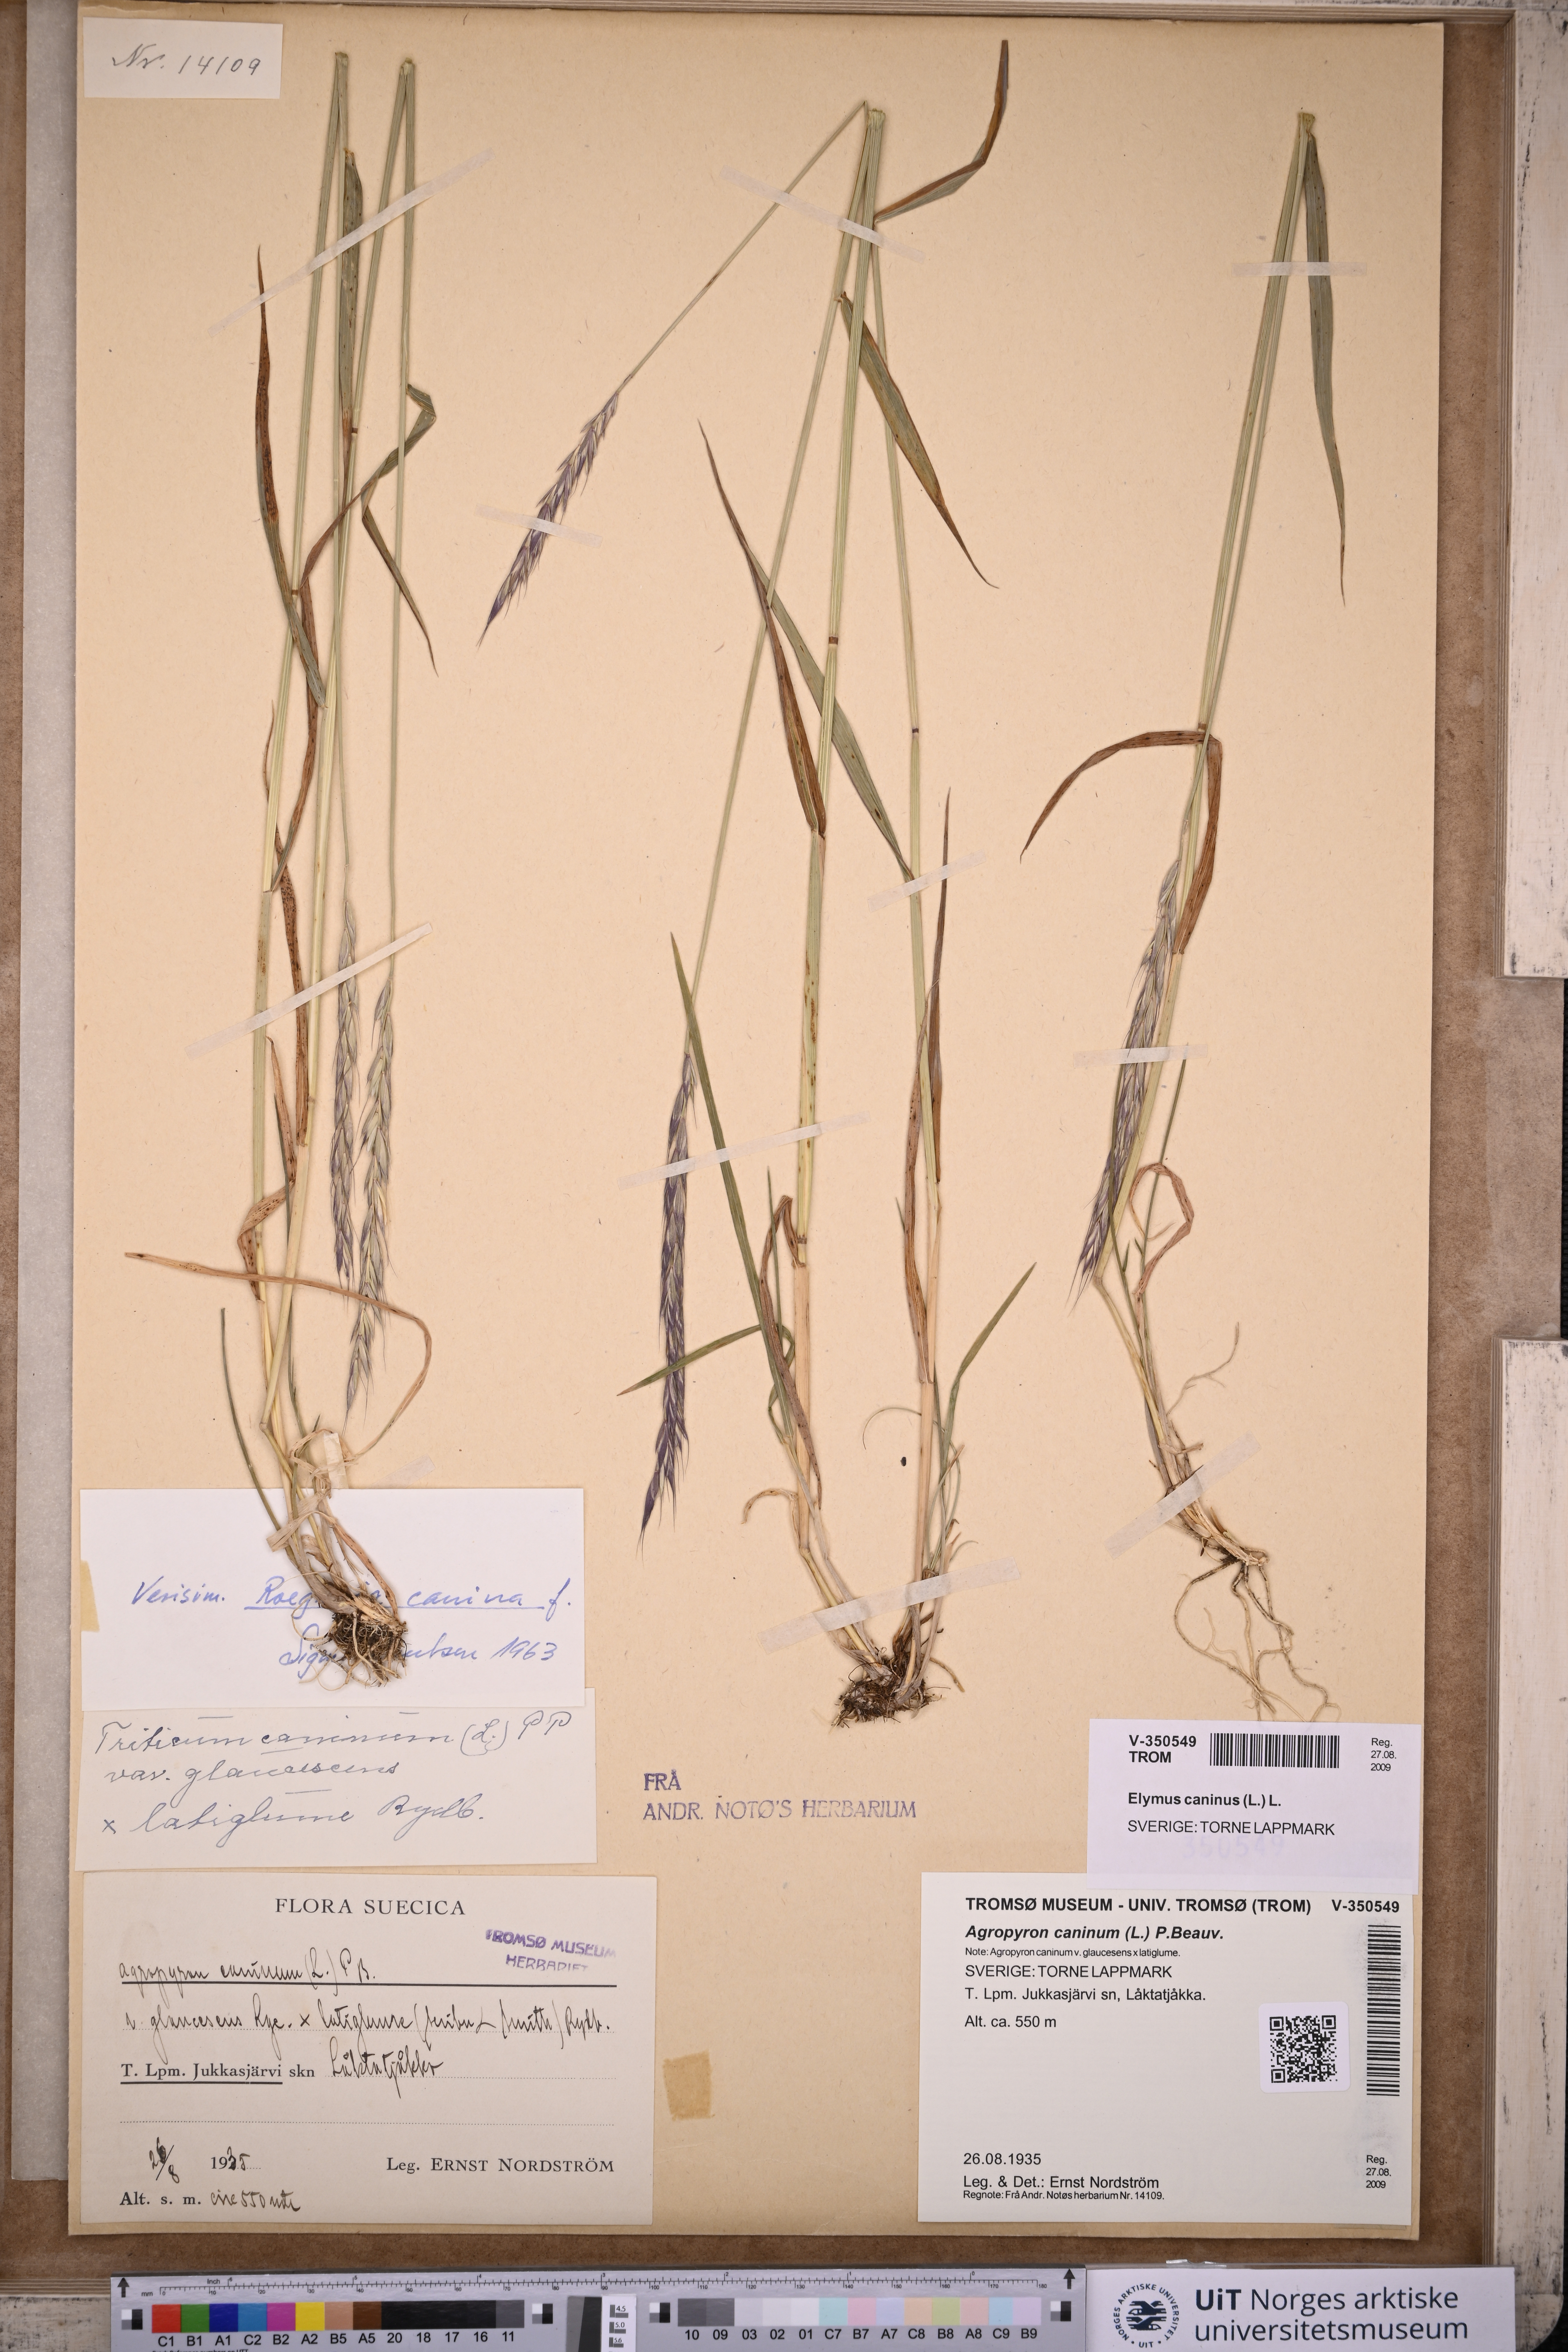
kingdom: Plantae
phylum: Tracheophyta
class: Liliopsida
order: Poales
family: Poaceae
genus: Elymus
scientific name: Elymus caninus
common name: Bearded couch
